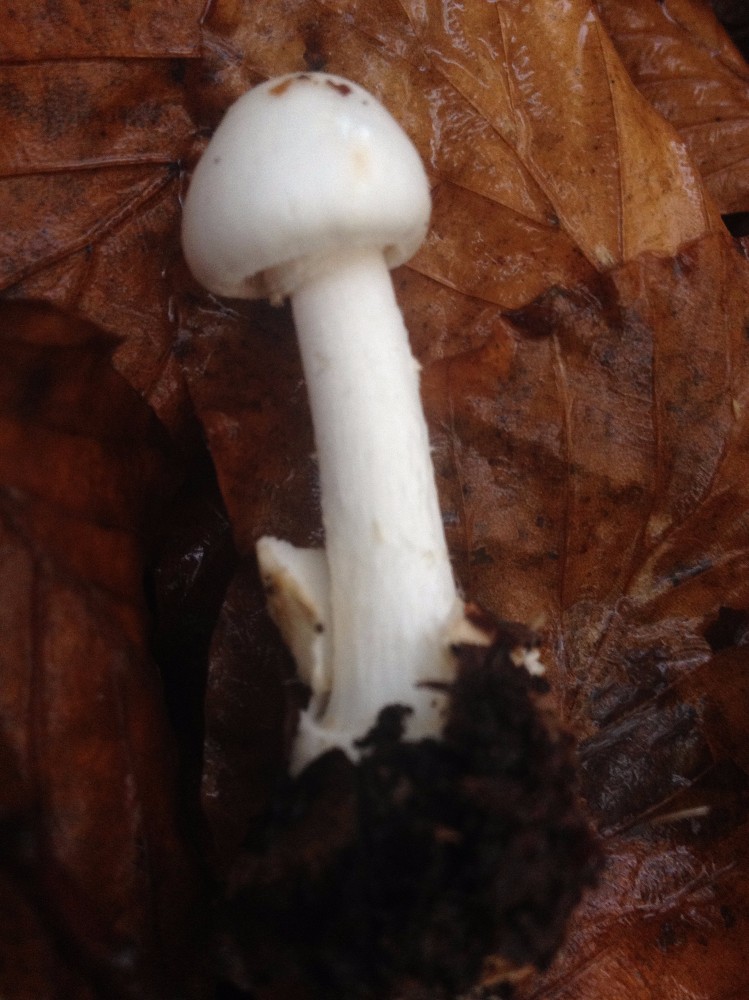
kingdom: Fungi
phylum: Basidiomycota
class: Agaricomycetes
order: Agaricales
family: Amanitaceae
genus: Amanita
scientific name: Amanita virosa
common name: snehvid fluesvamp
